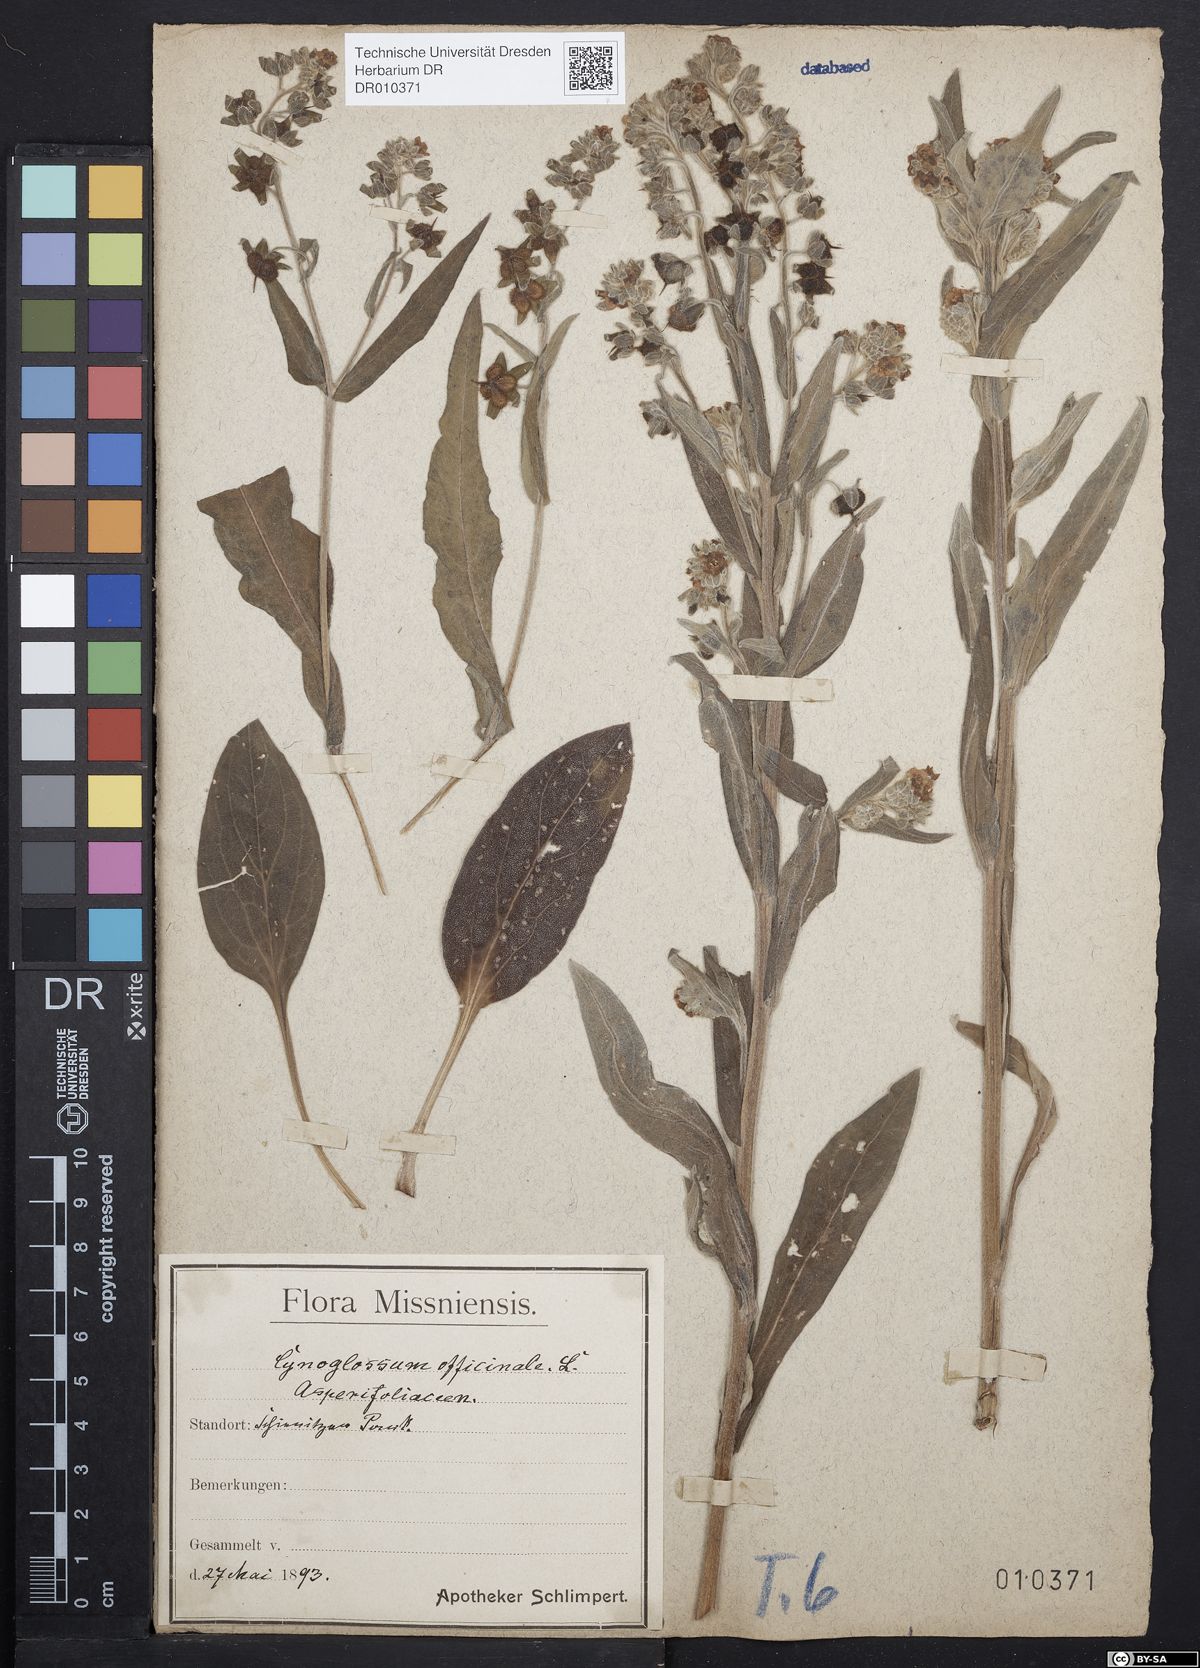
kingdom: Plantae
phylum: Tracheophyta
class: Magnoliopsida
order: Boraginales
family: Boraginaceae
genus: Cynoglossum
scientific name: Cynoglossum officinale
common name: Hound's-tongue
